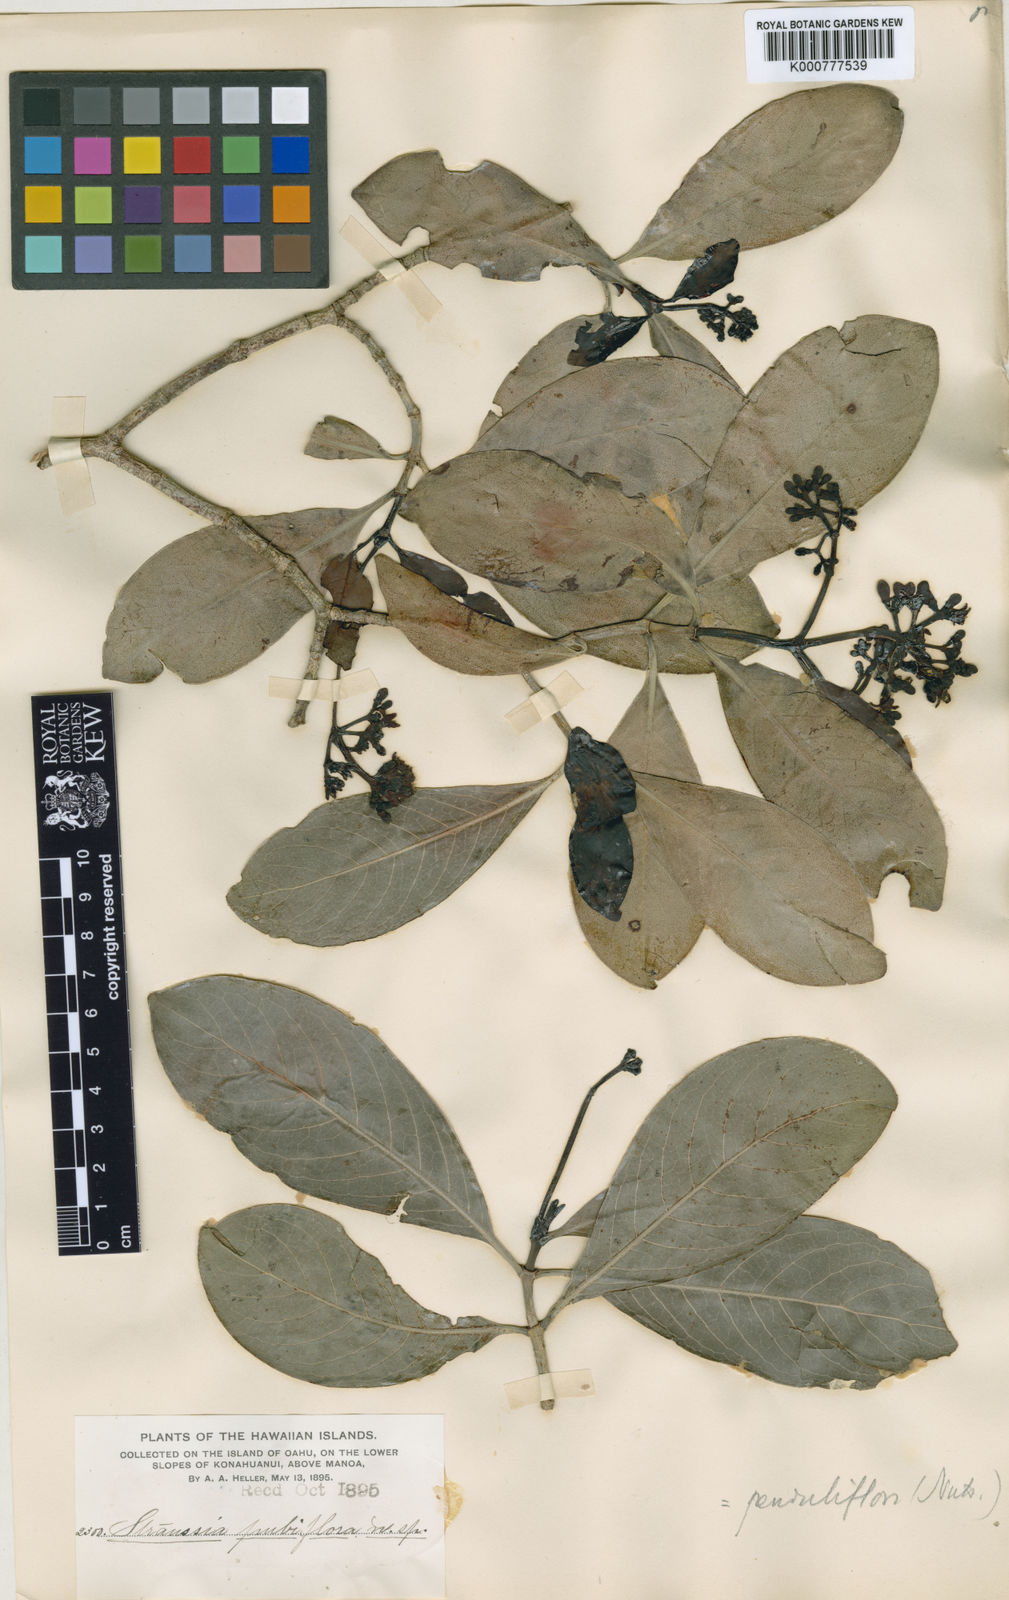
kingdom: Plantae
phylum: Tracheophyta
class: Magnoliopsida
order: Gentianales
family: Rubiaceae
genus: Psychotria
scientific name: Psychotria kaduana
